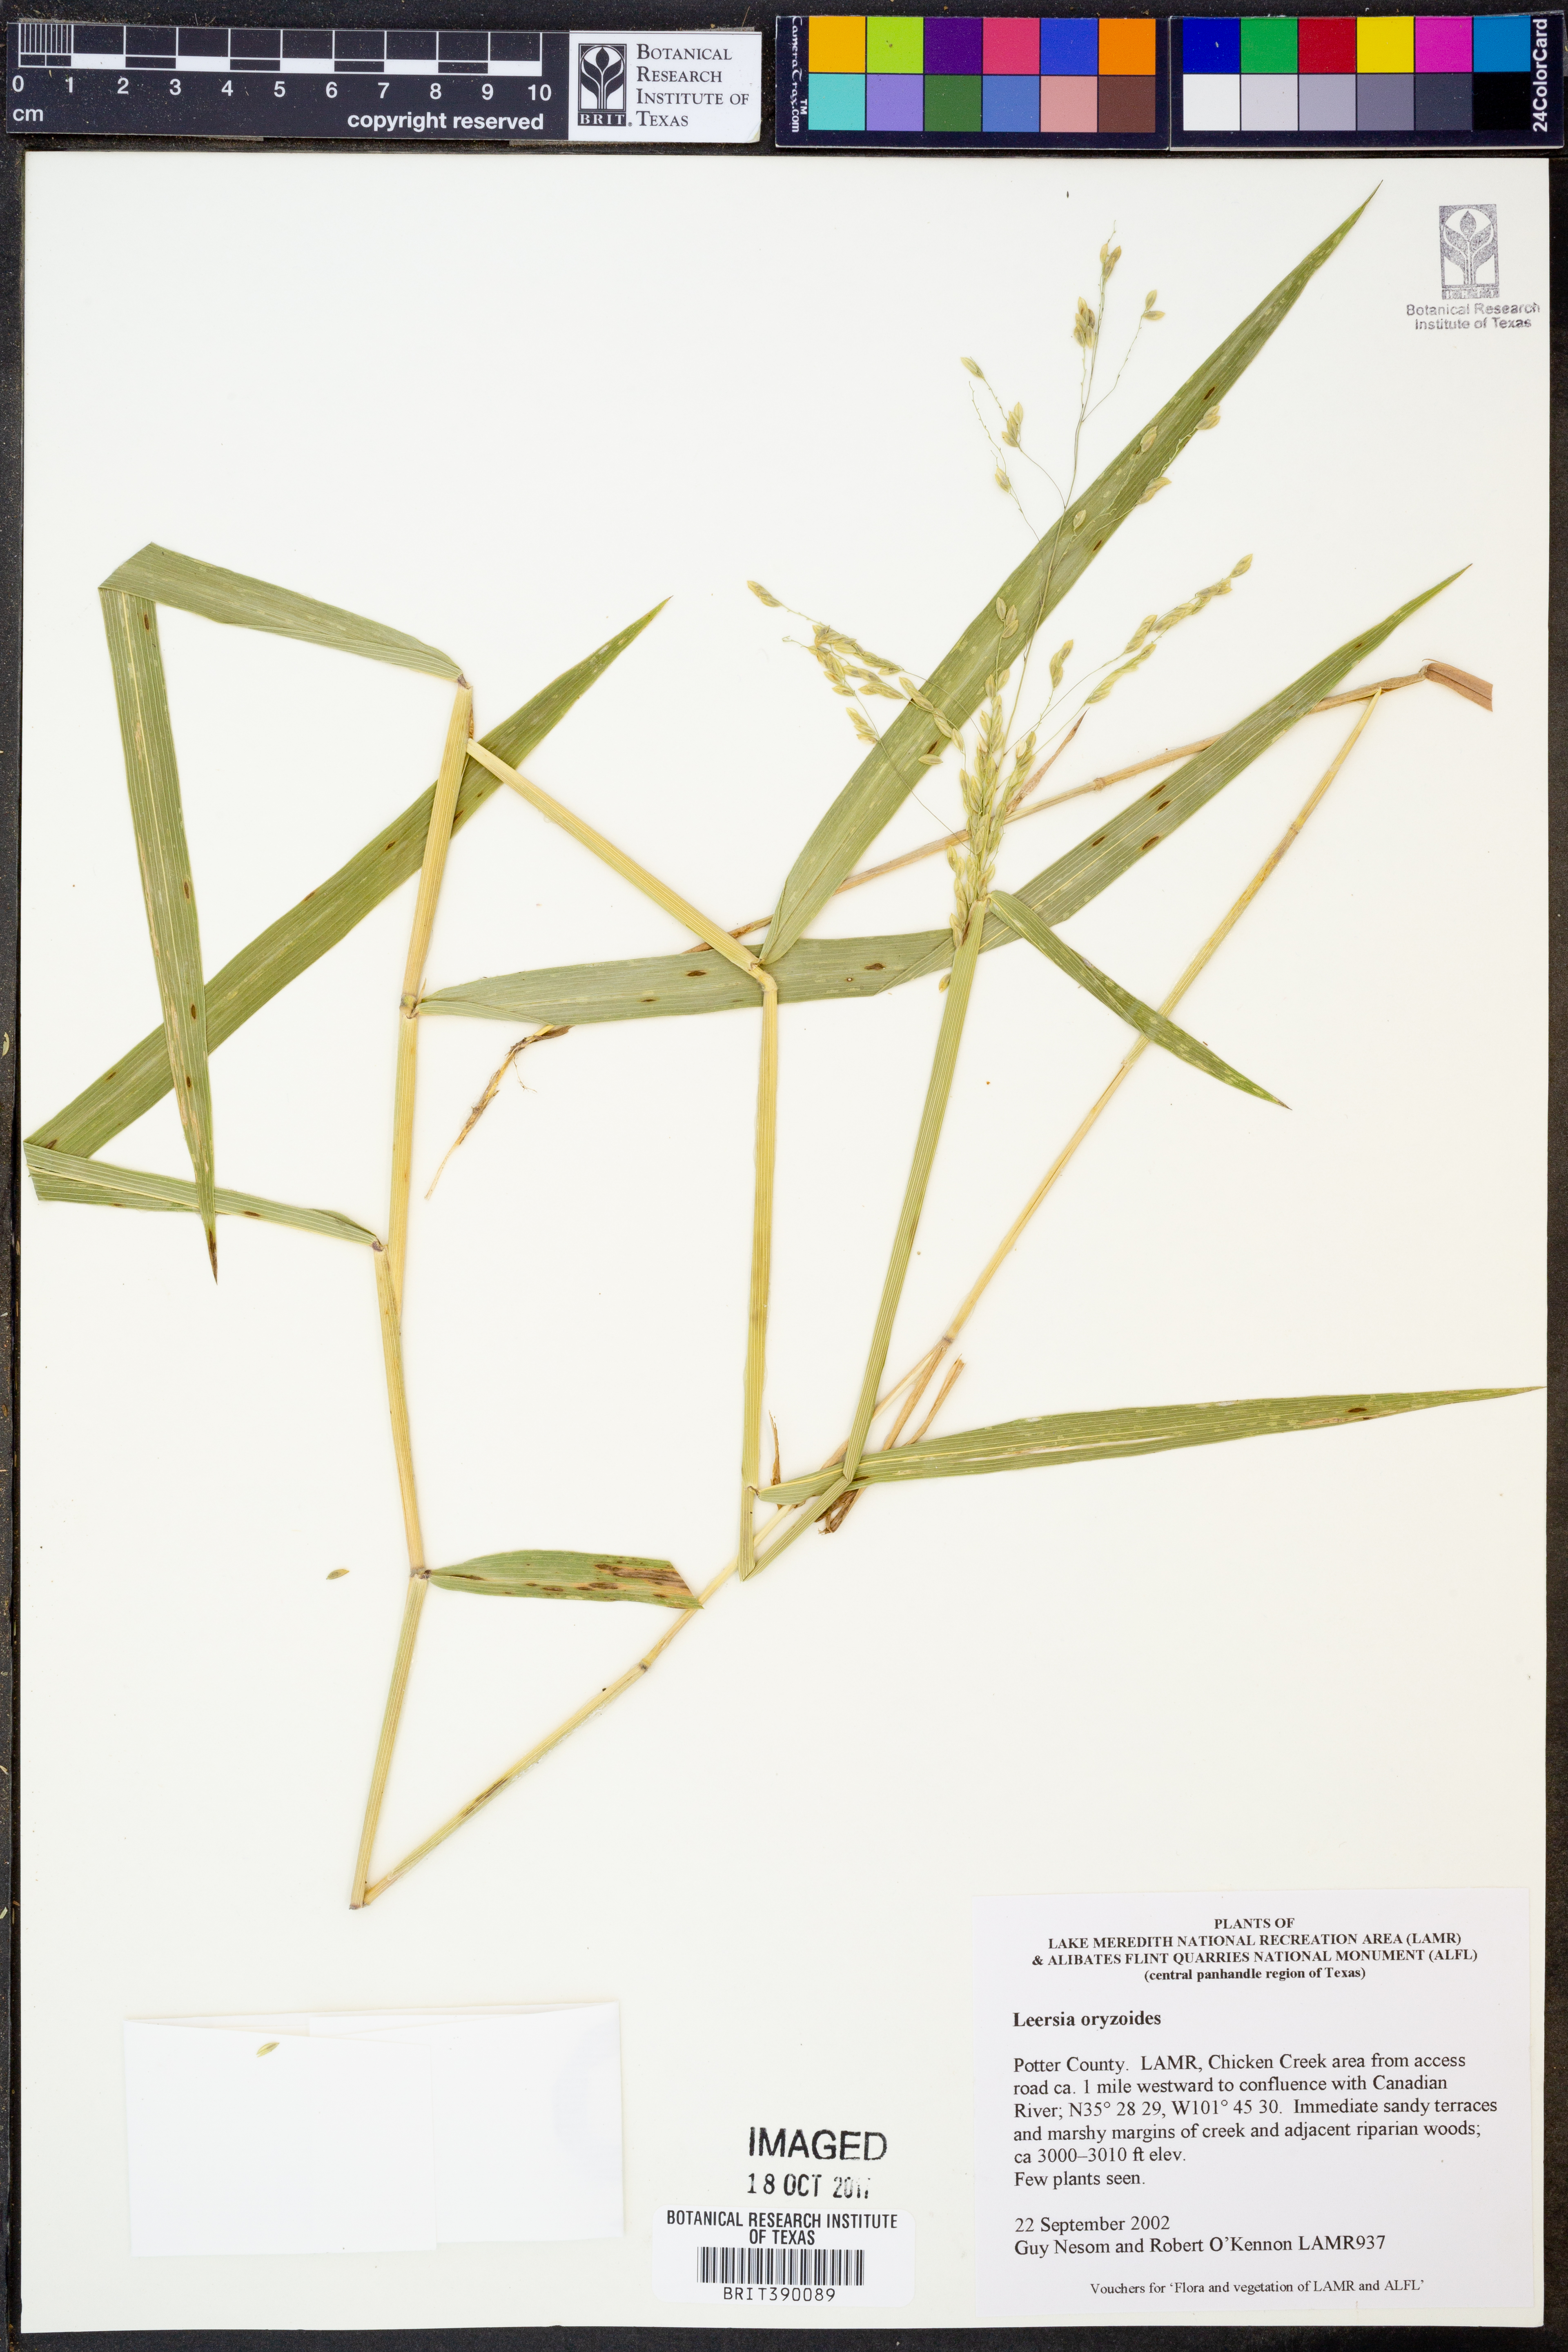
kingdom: Plantae
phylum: Tracheophyta
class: Liliopsida
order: Poales
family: Poaceae
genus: Leersia
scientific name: Leersia oryzoides
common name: Cut-grass
